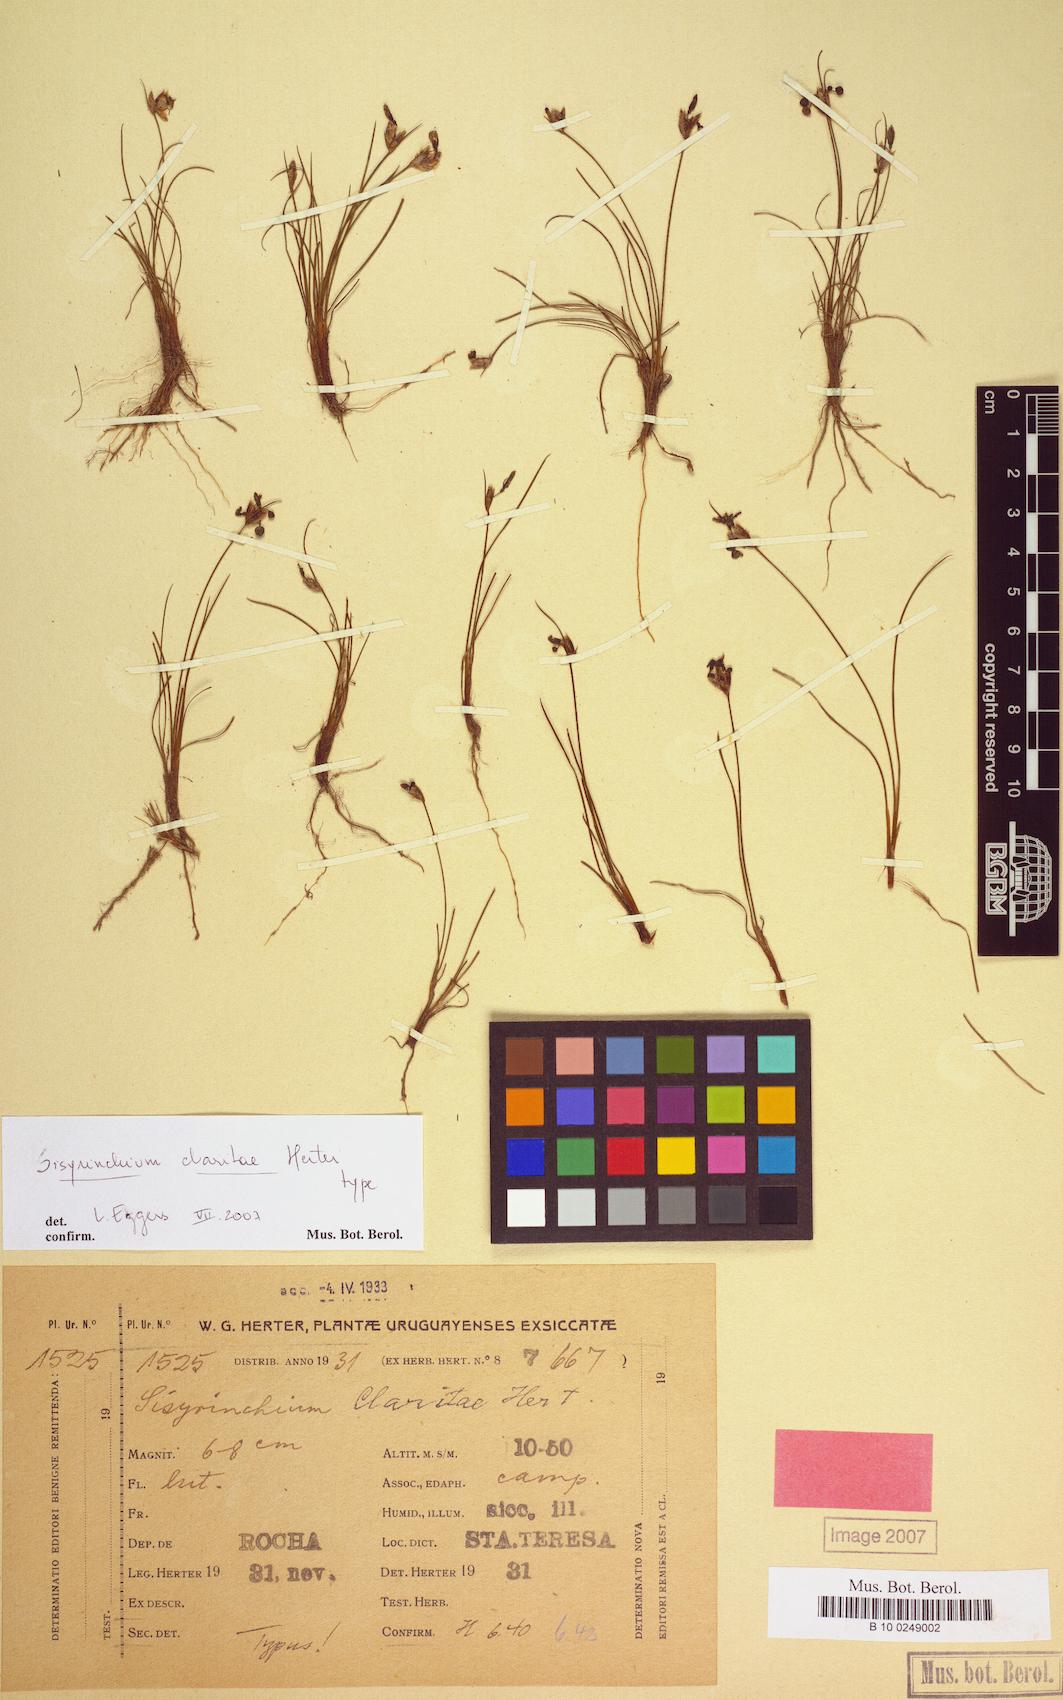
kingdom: Plantae
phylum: Tracheophyta
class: Liliopsida
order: Asparagales
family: Iridaceae
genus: Sisyrinchium
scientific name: Sisyrinchium claritae
